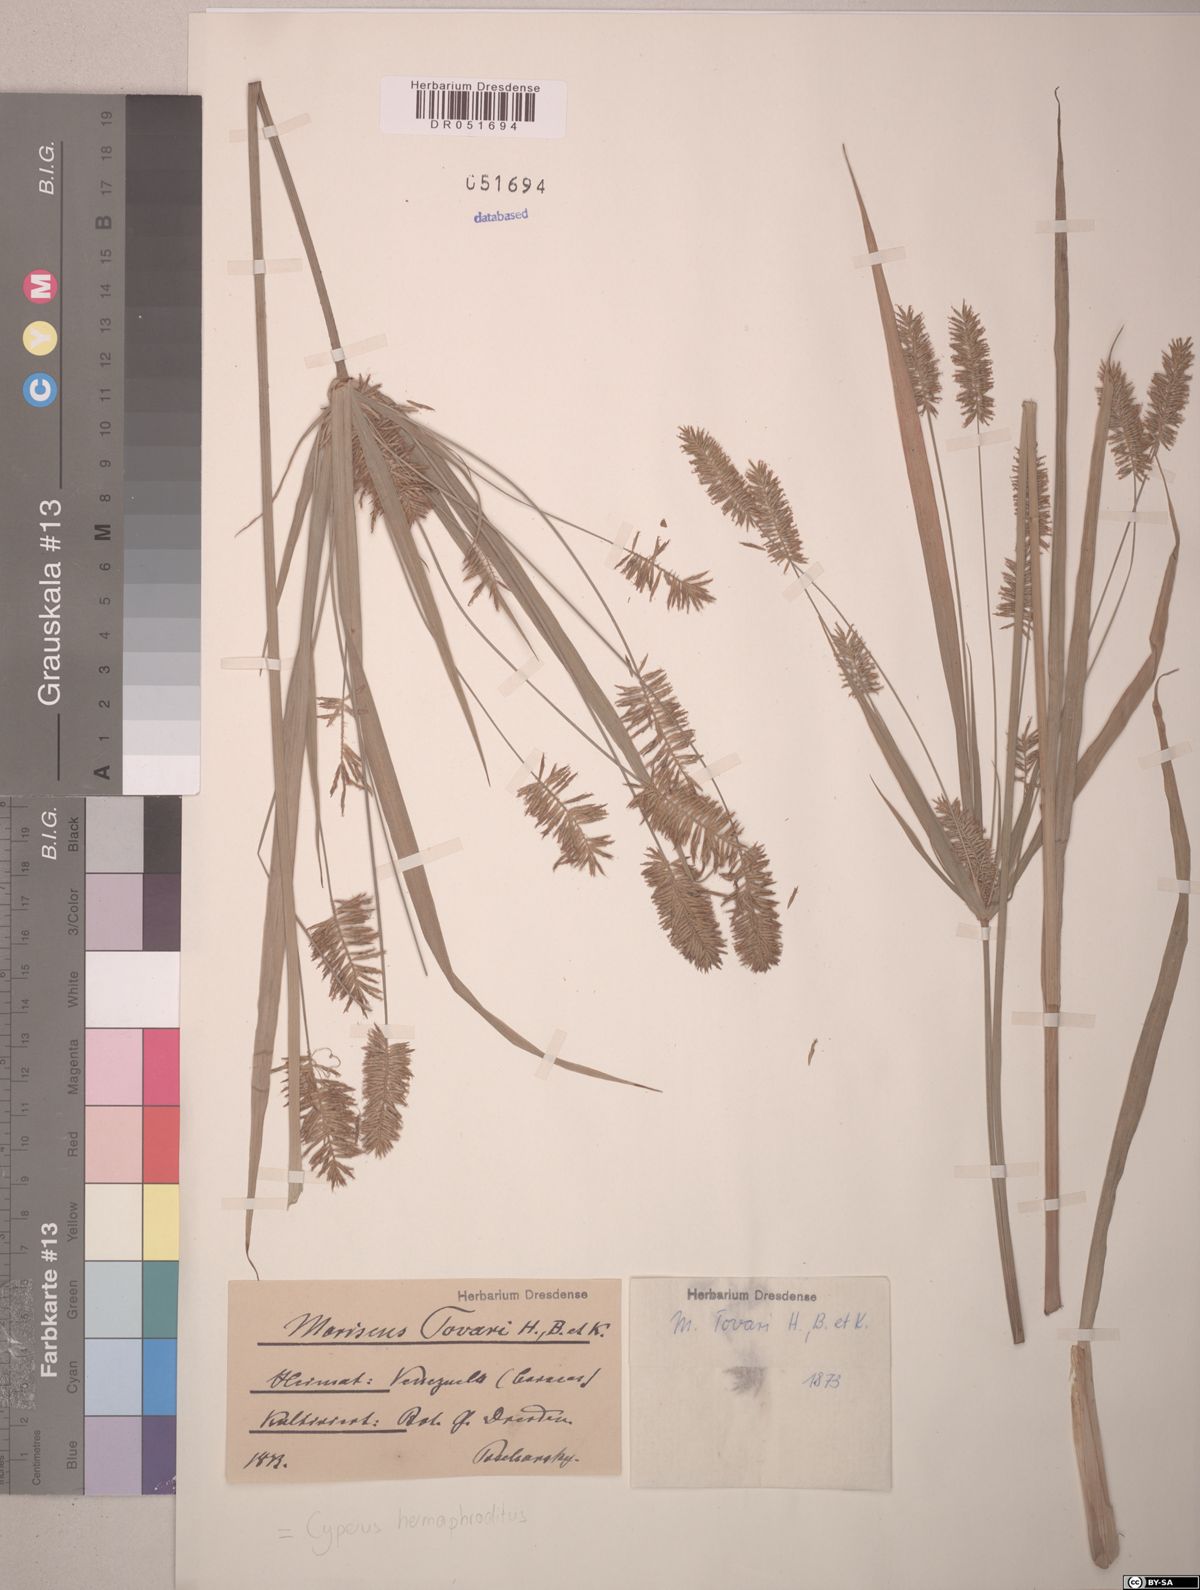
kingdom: Plantae
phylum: Tracheophyta
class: Liliopsida
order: Poales
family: Cyperaceae
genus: Cyperus
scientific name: Cyperus hermaphroditus
